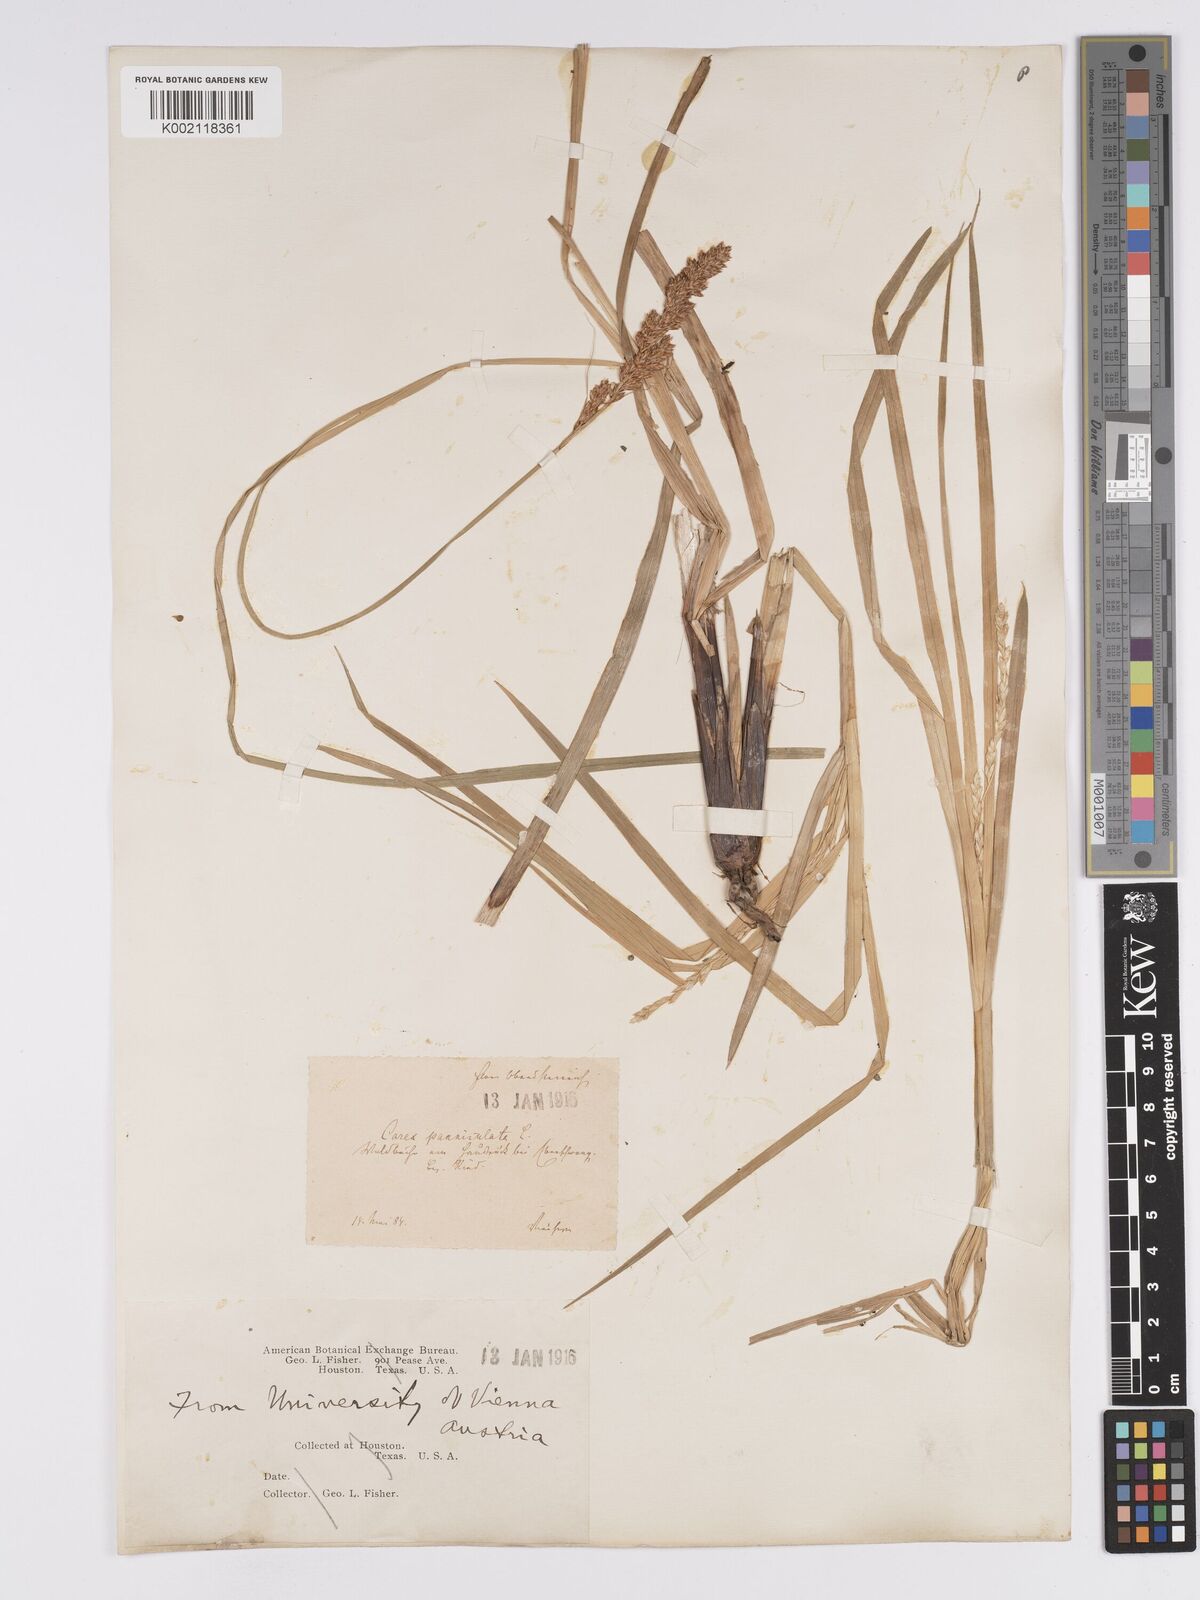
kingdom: Plantae
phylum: Tracheophyta
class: Liliopsida
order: Poales
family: Cyperaceae
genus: Carex
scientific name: Carex paniculata
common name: Greater tussock-sedge
